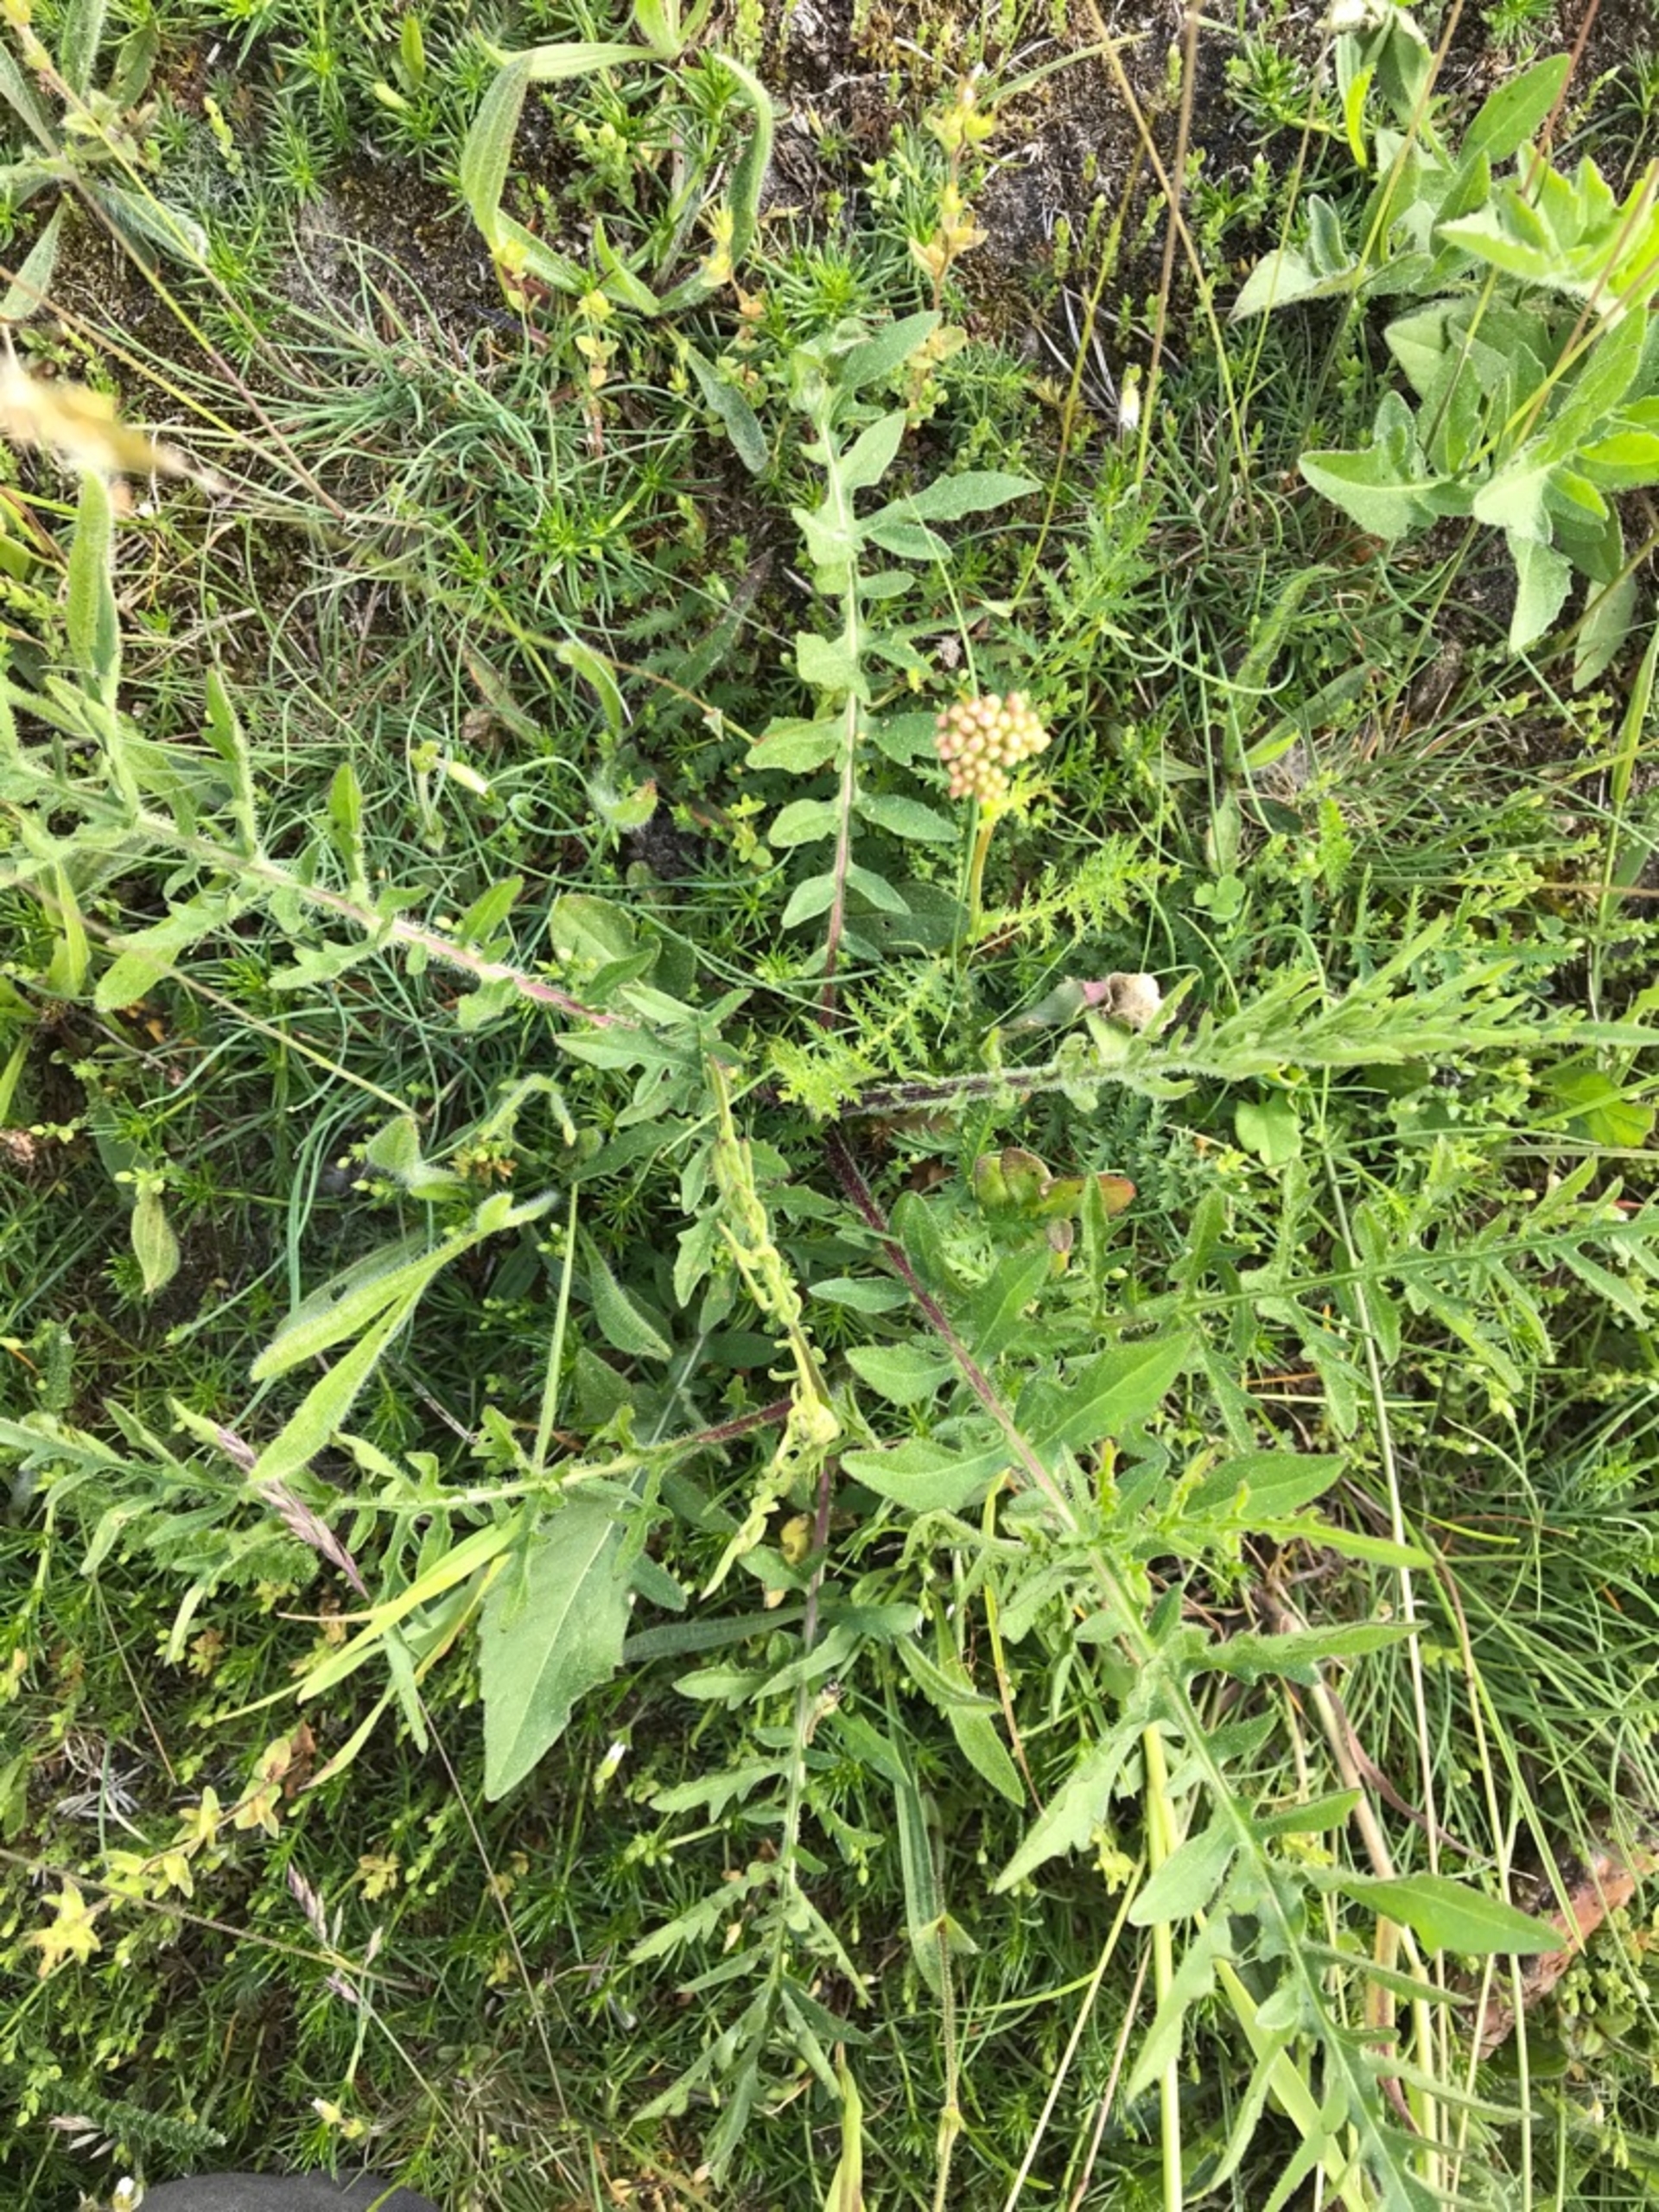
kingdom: Plantae
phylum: Tracheophyta
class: Magnoliopsida
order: Asterales
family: Asteraceae
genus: Centaurea
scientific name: Centaurea scabiosa
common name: Stor knopurt
